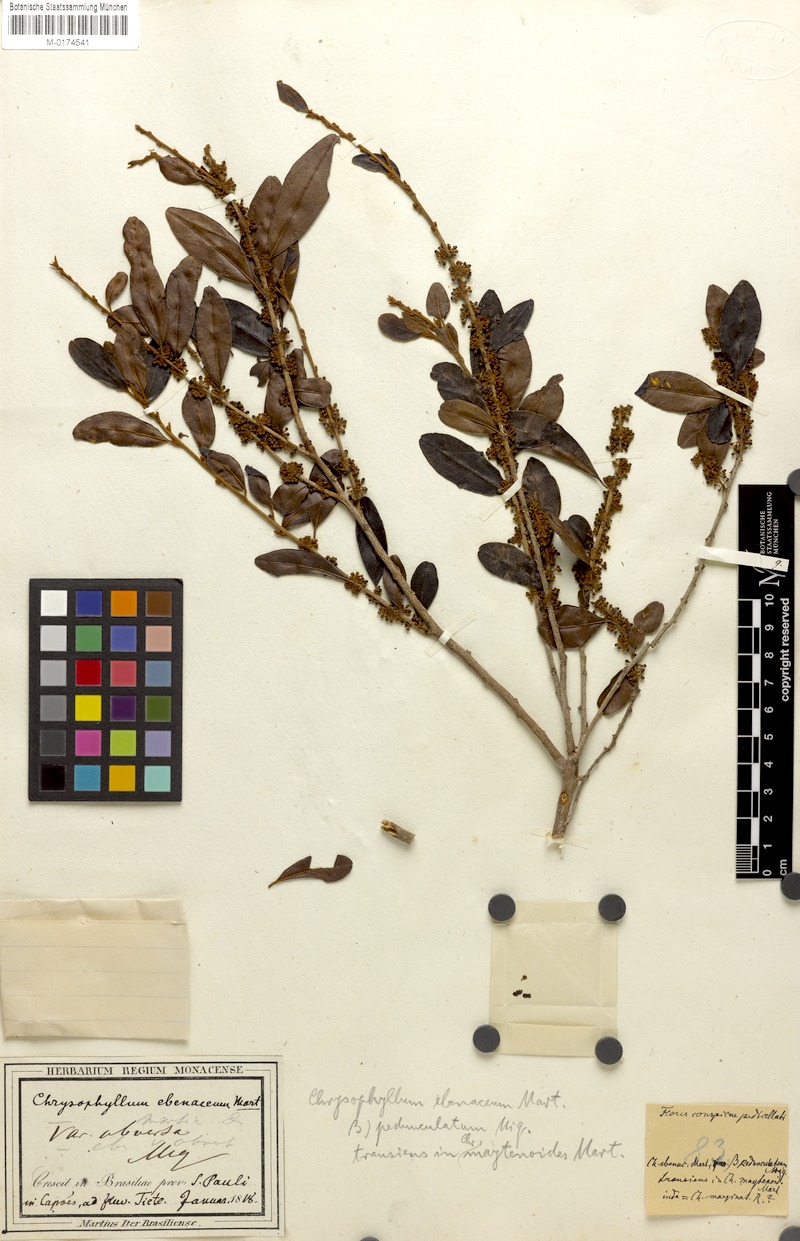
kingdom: Plantae
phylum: Tracheophyta
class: Magnoliopsida
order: Ericales
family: Sapotaceae
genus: Chrysophyllum
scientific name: Chrysophyllum marginatum
